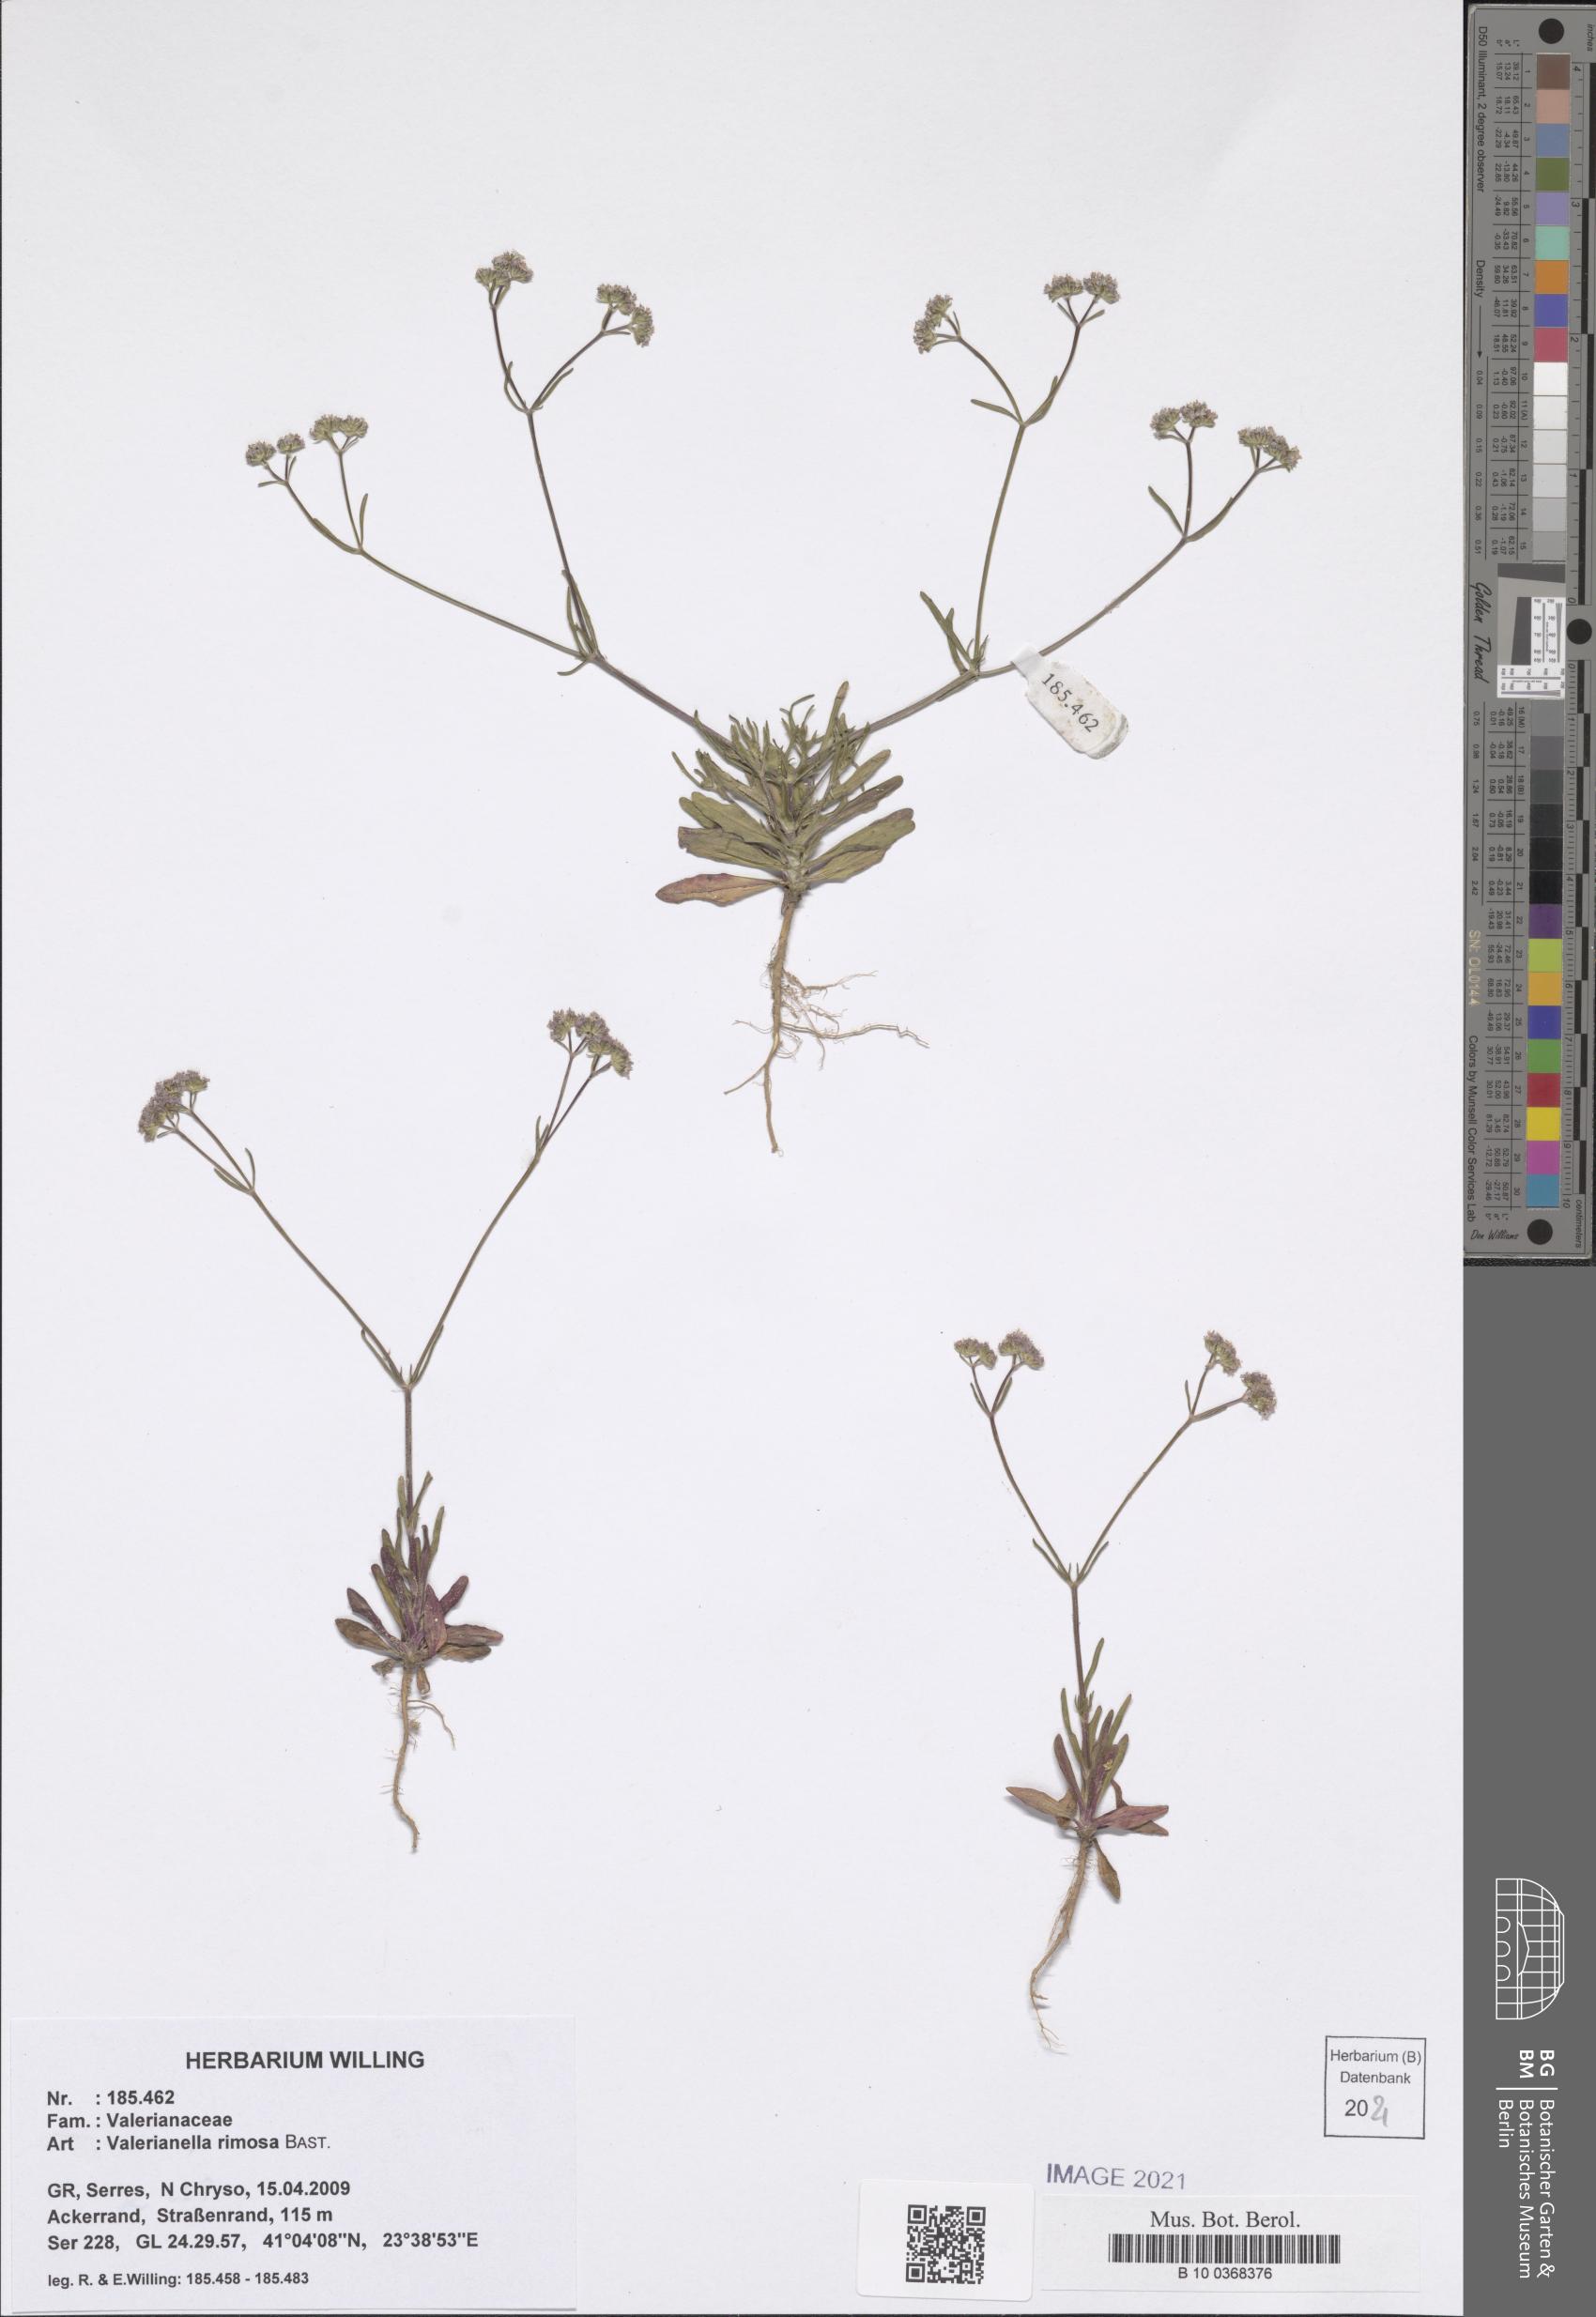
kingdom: Plantae
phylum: Tracheophyta
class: Magnoliopsida
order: Dipsacales
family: Caprifoliaceae
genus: Valerianella
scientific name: Valerianella rimosa
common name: Broad-fruited cornsalad
